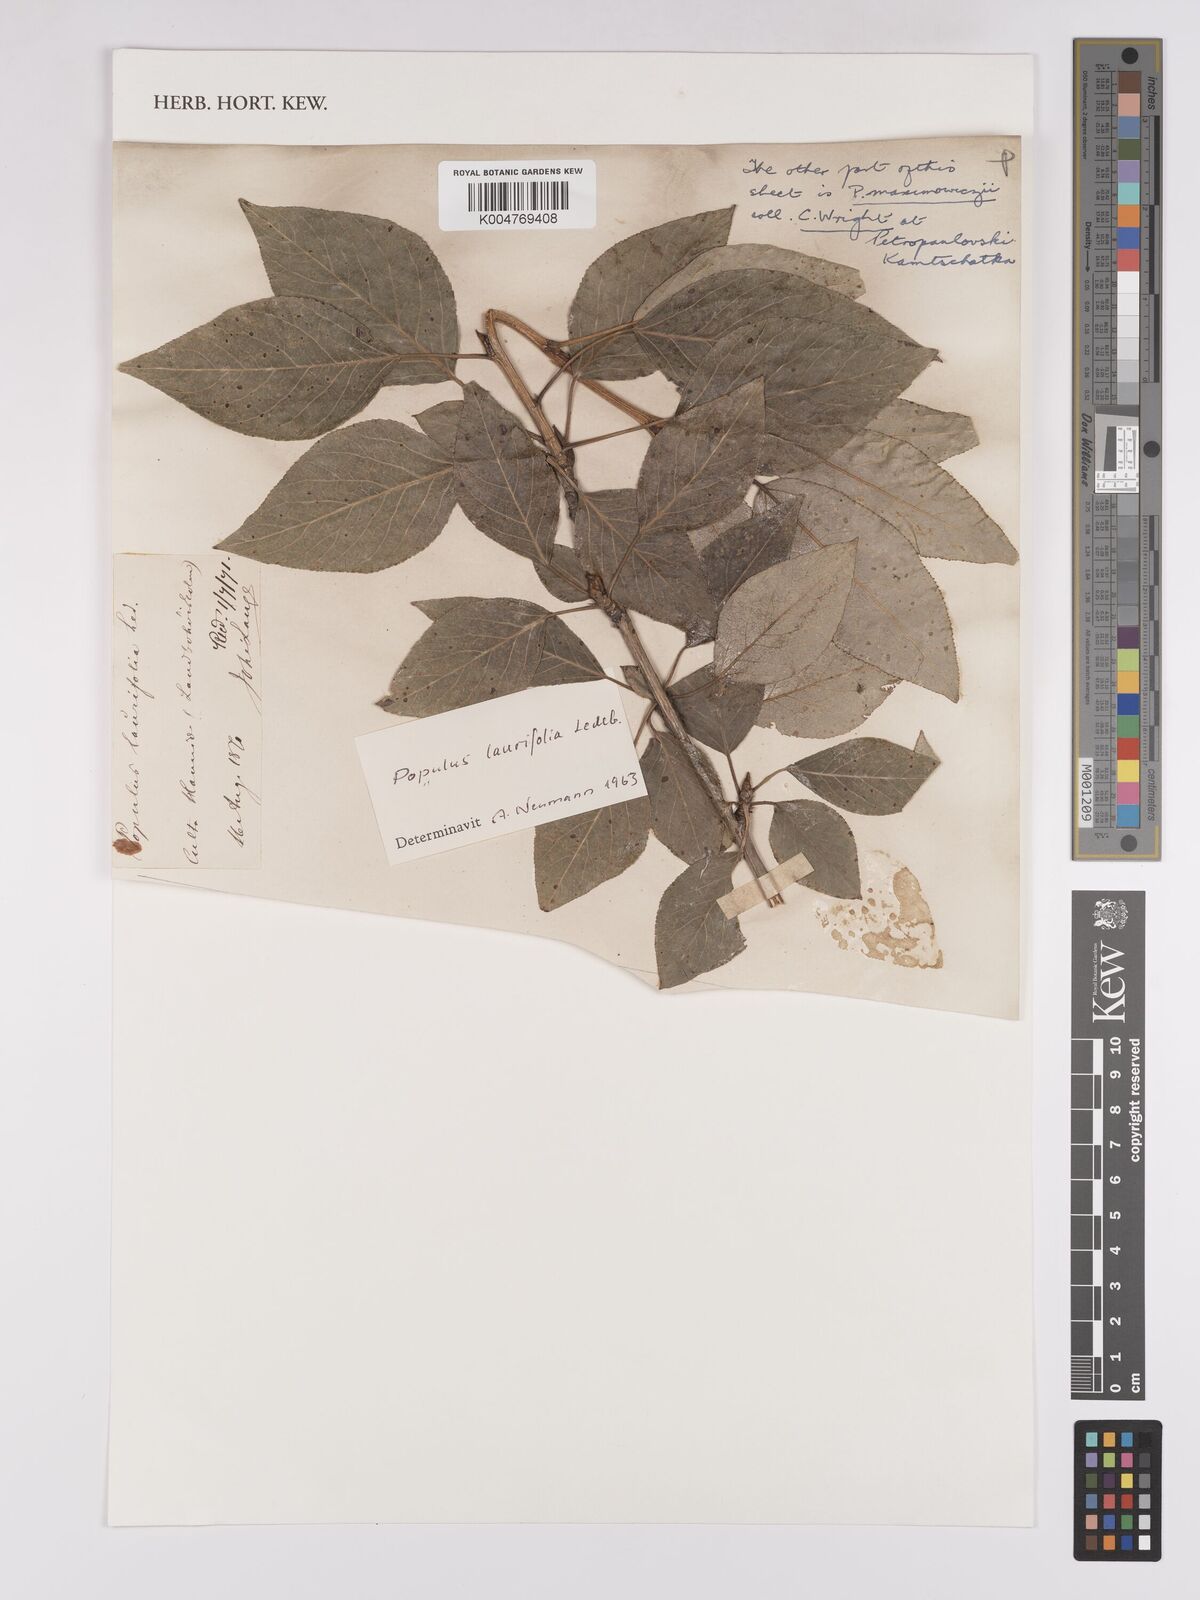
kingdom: Plantae
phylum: Tracheophyta
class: Magnoliopsida
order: Malpighiales
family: Salicaceae
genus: Populus
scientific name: Populus laurifolia
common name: Laurel-leaf poplar
